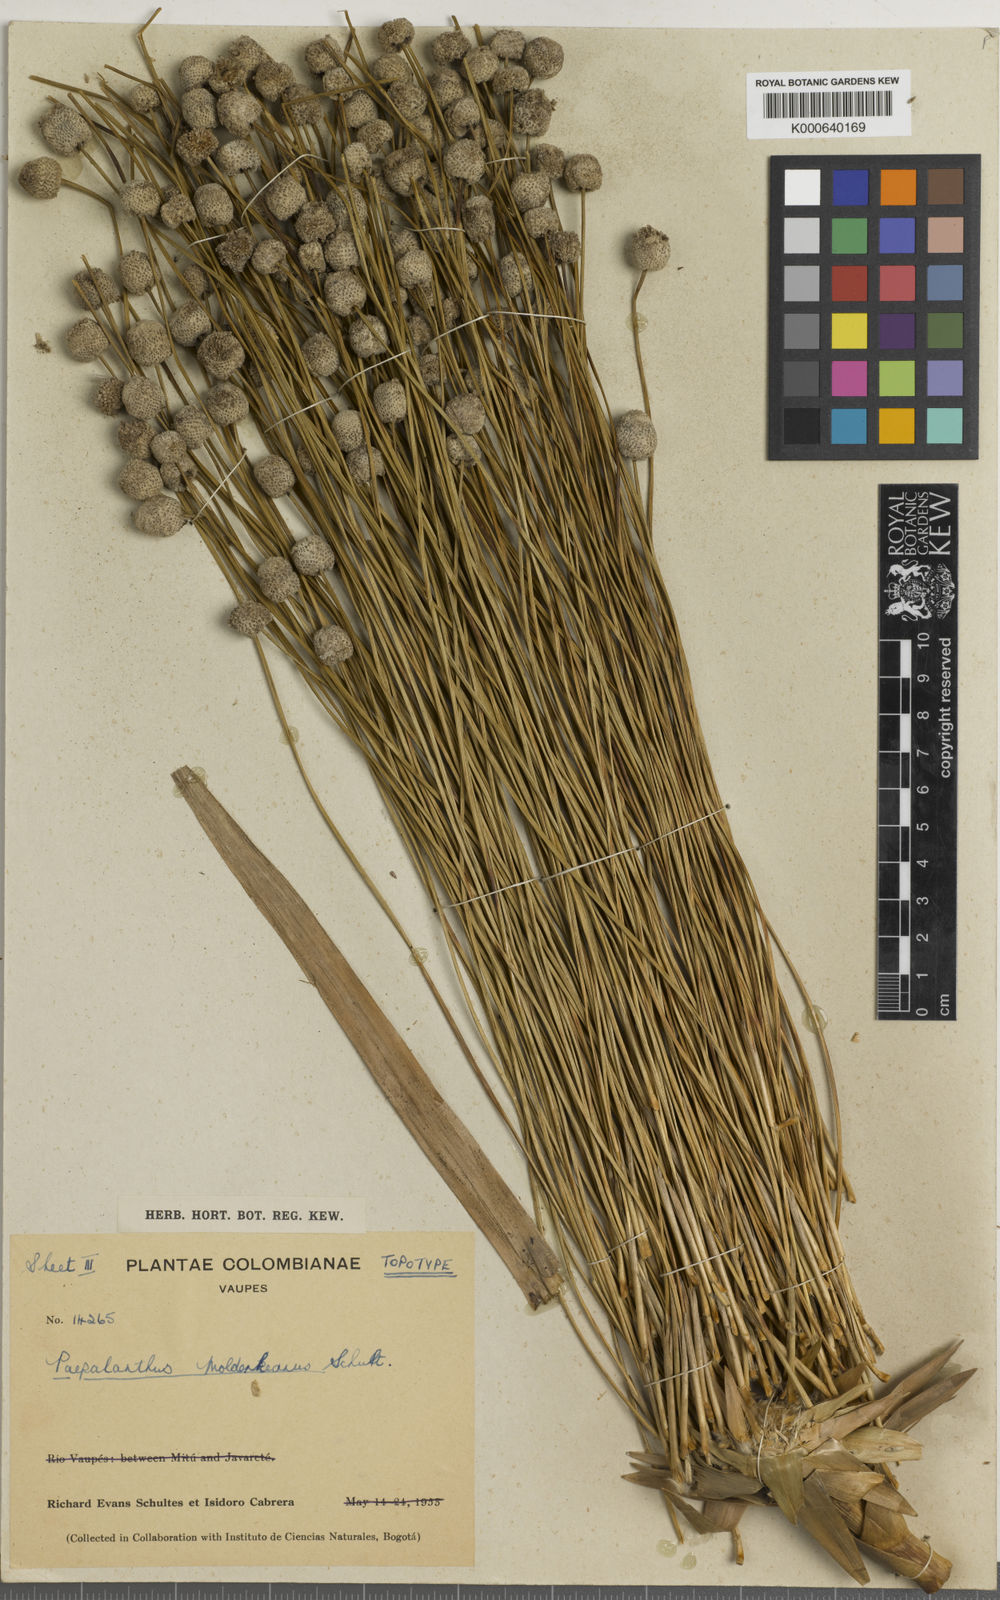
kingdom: Plantae
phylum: Tracheophyta
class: Liliopsida
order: Poales
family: Eriocaulaceae
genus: Paepalanthus
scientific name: Paepalanthus chiquitensis
